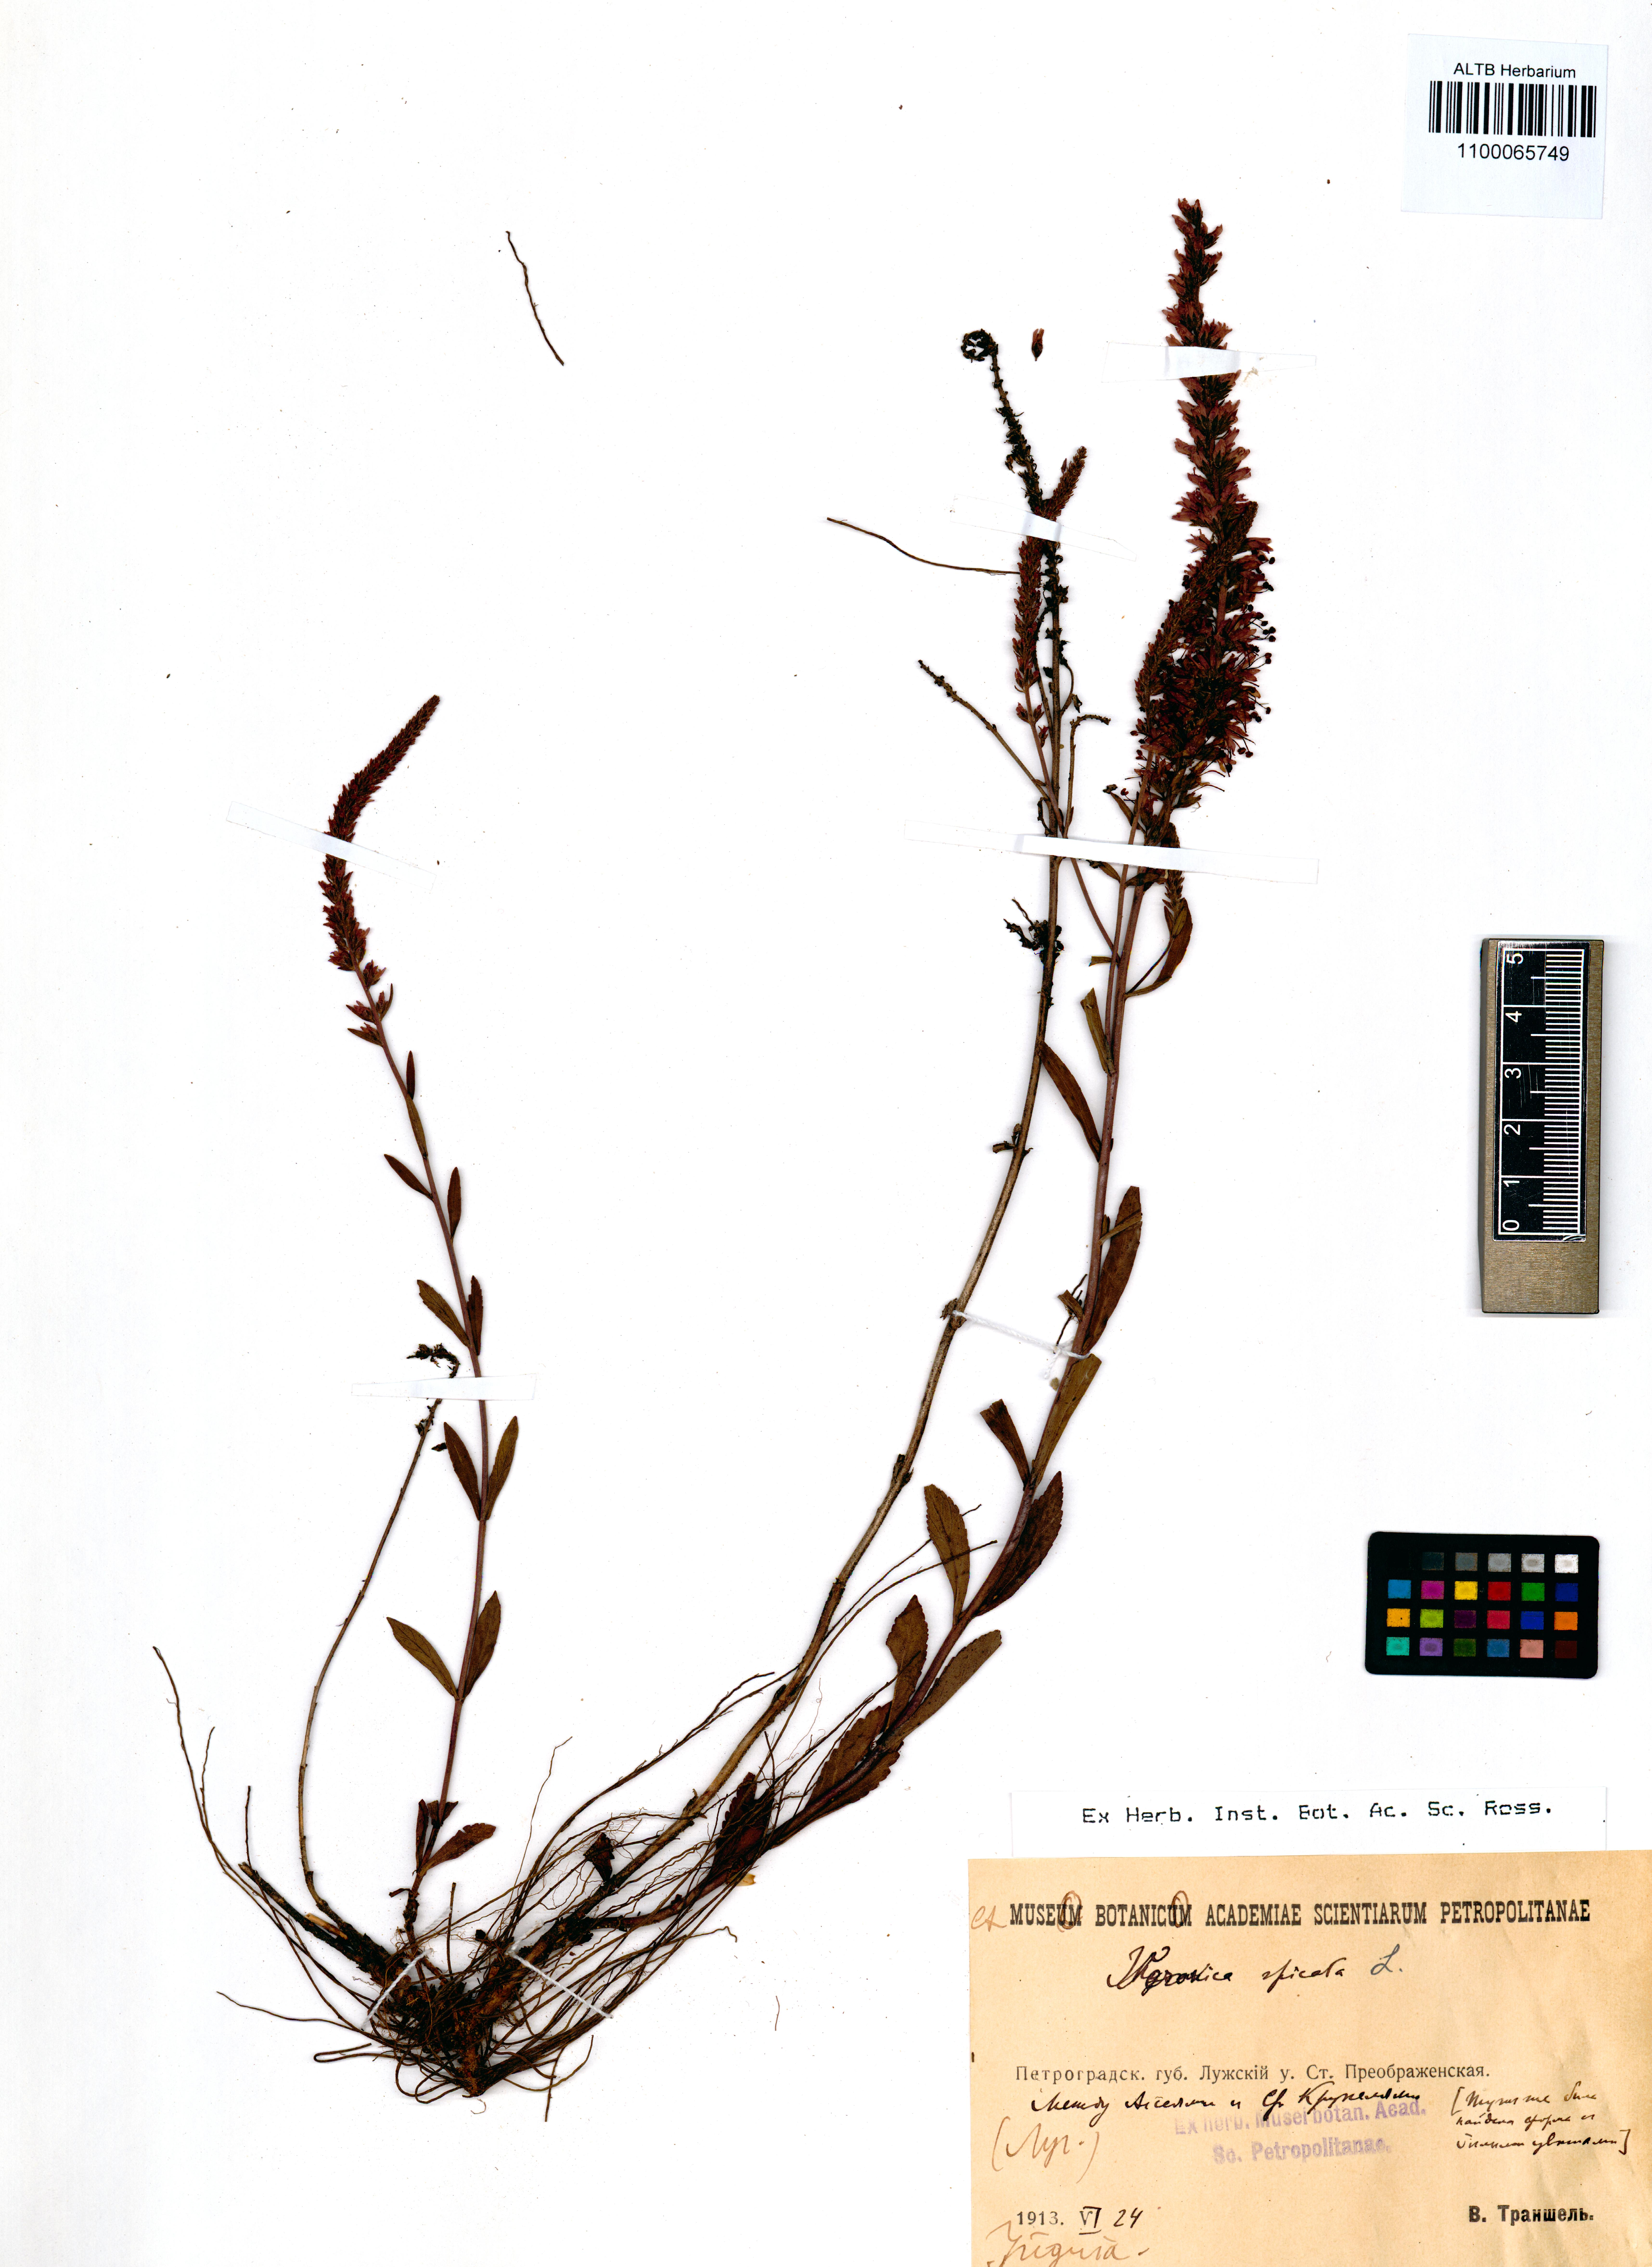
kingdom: Plantae
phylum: Tracheophyta
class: Magnoliopsida
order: Lamiales
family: Plantaginaceae
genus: Veronica
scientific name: Veronica spicata
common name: Spiked speedwell
